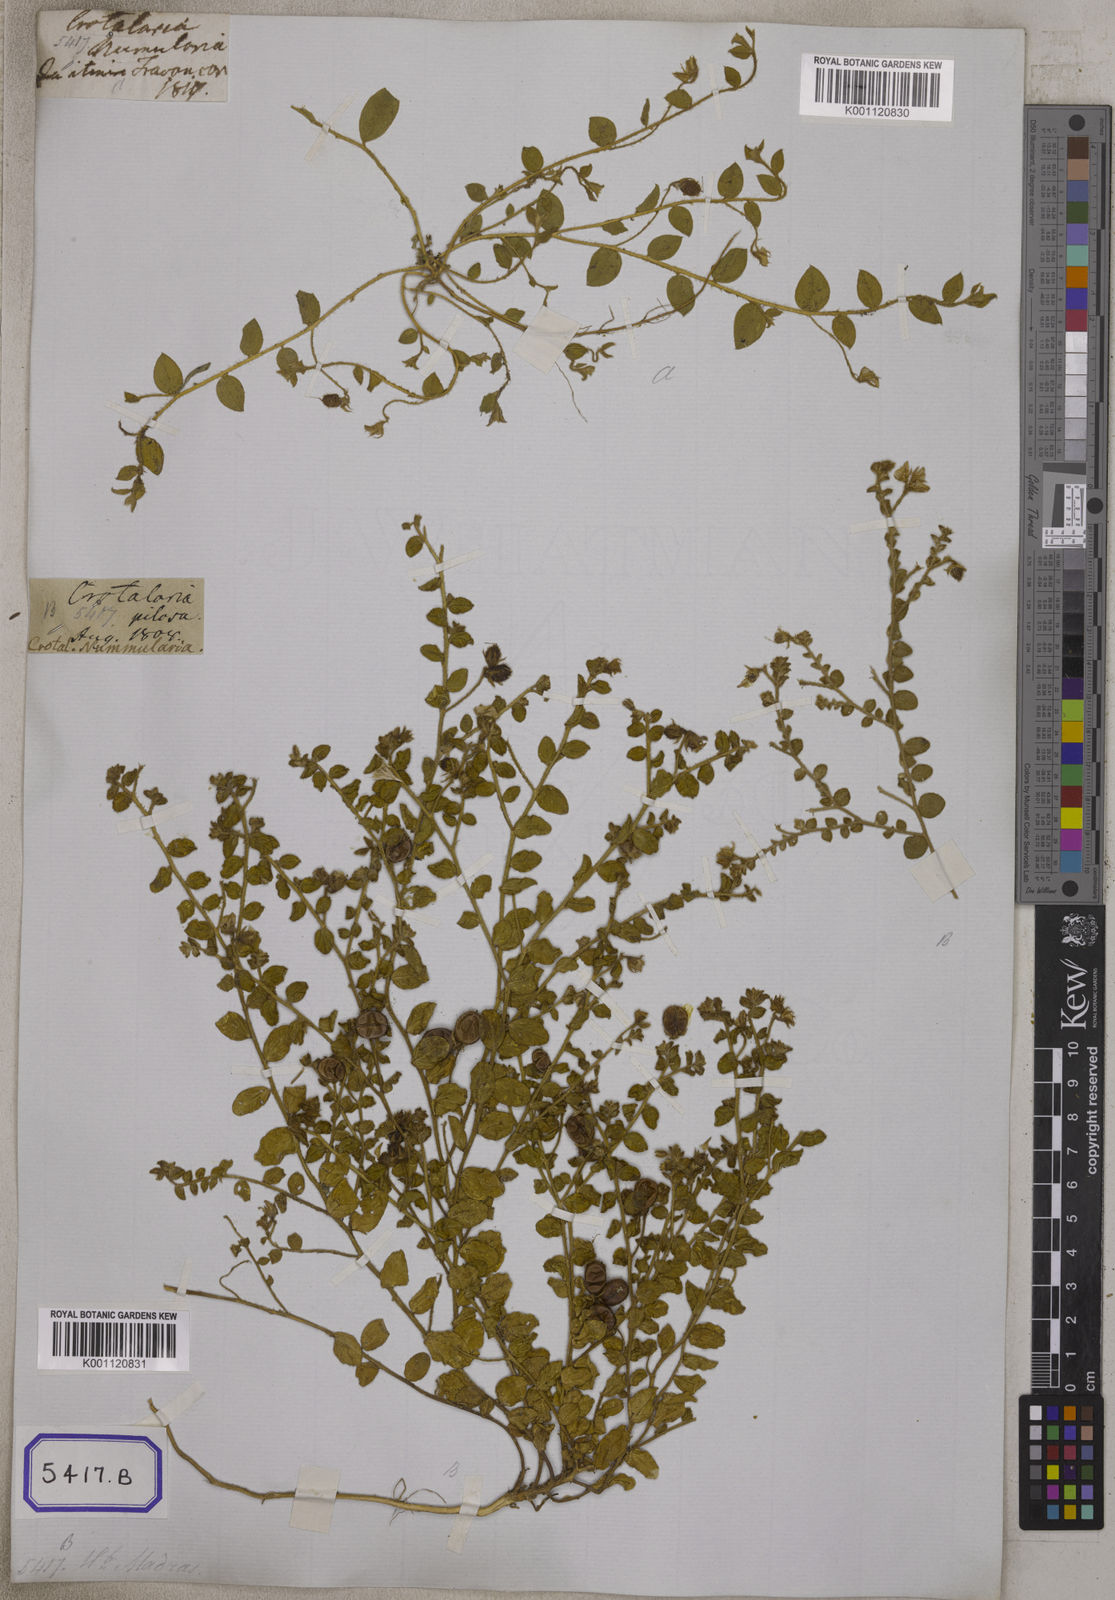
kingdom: Plantae
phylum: Tracheophyta
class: Magnoliopsida
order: Fabales
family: Fabaceae
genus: Crotalaria
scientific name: Crotalaria angulata
